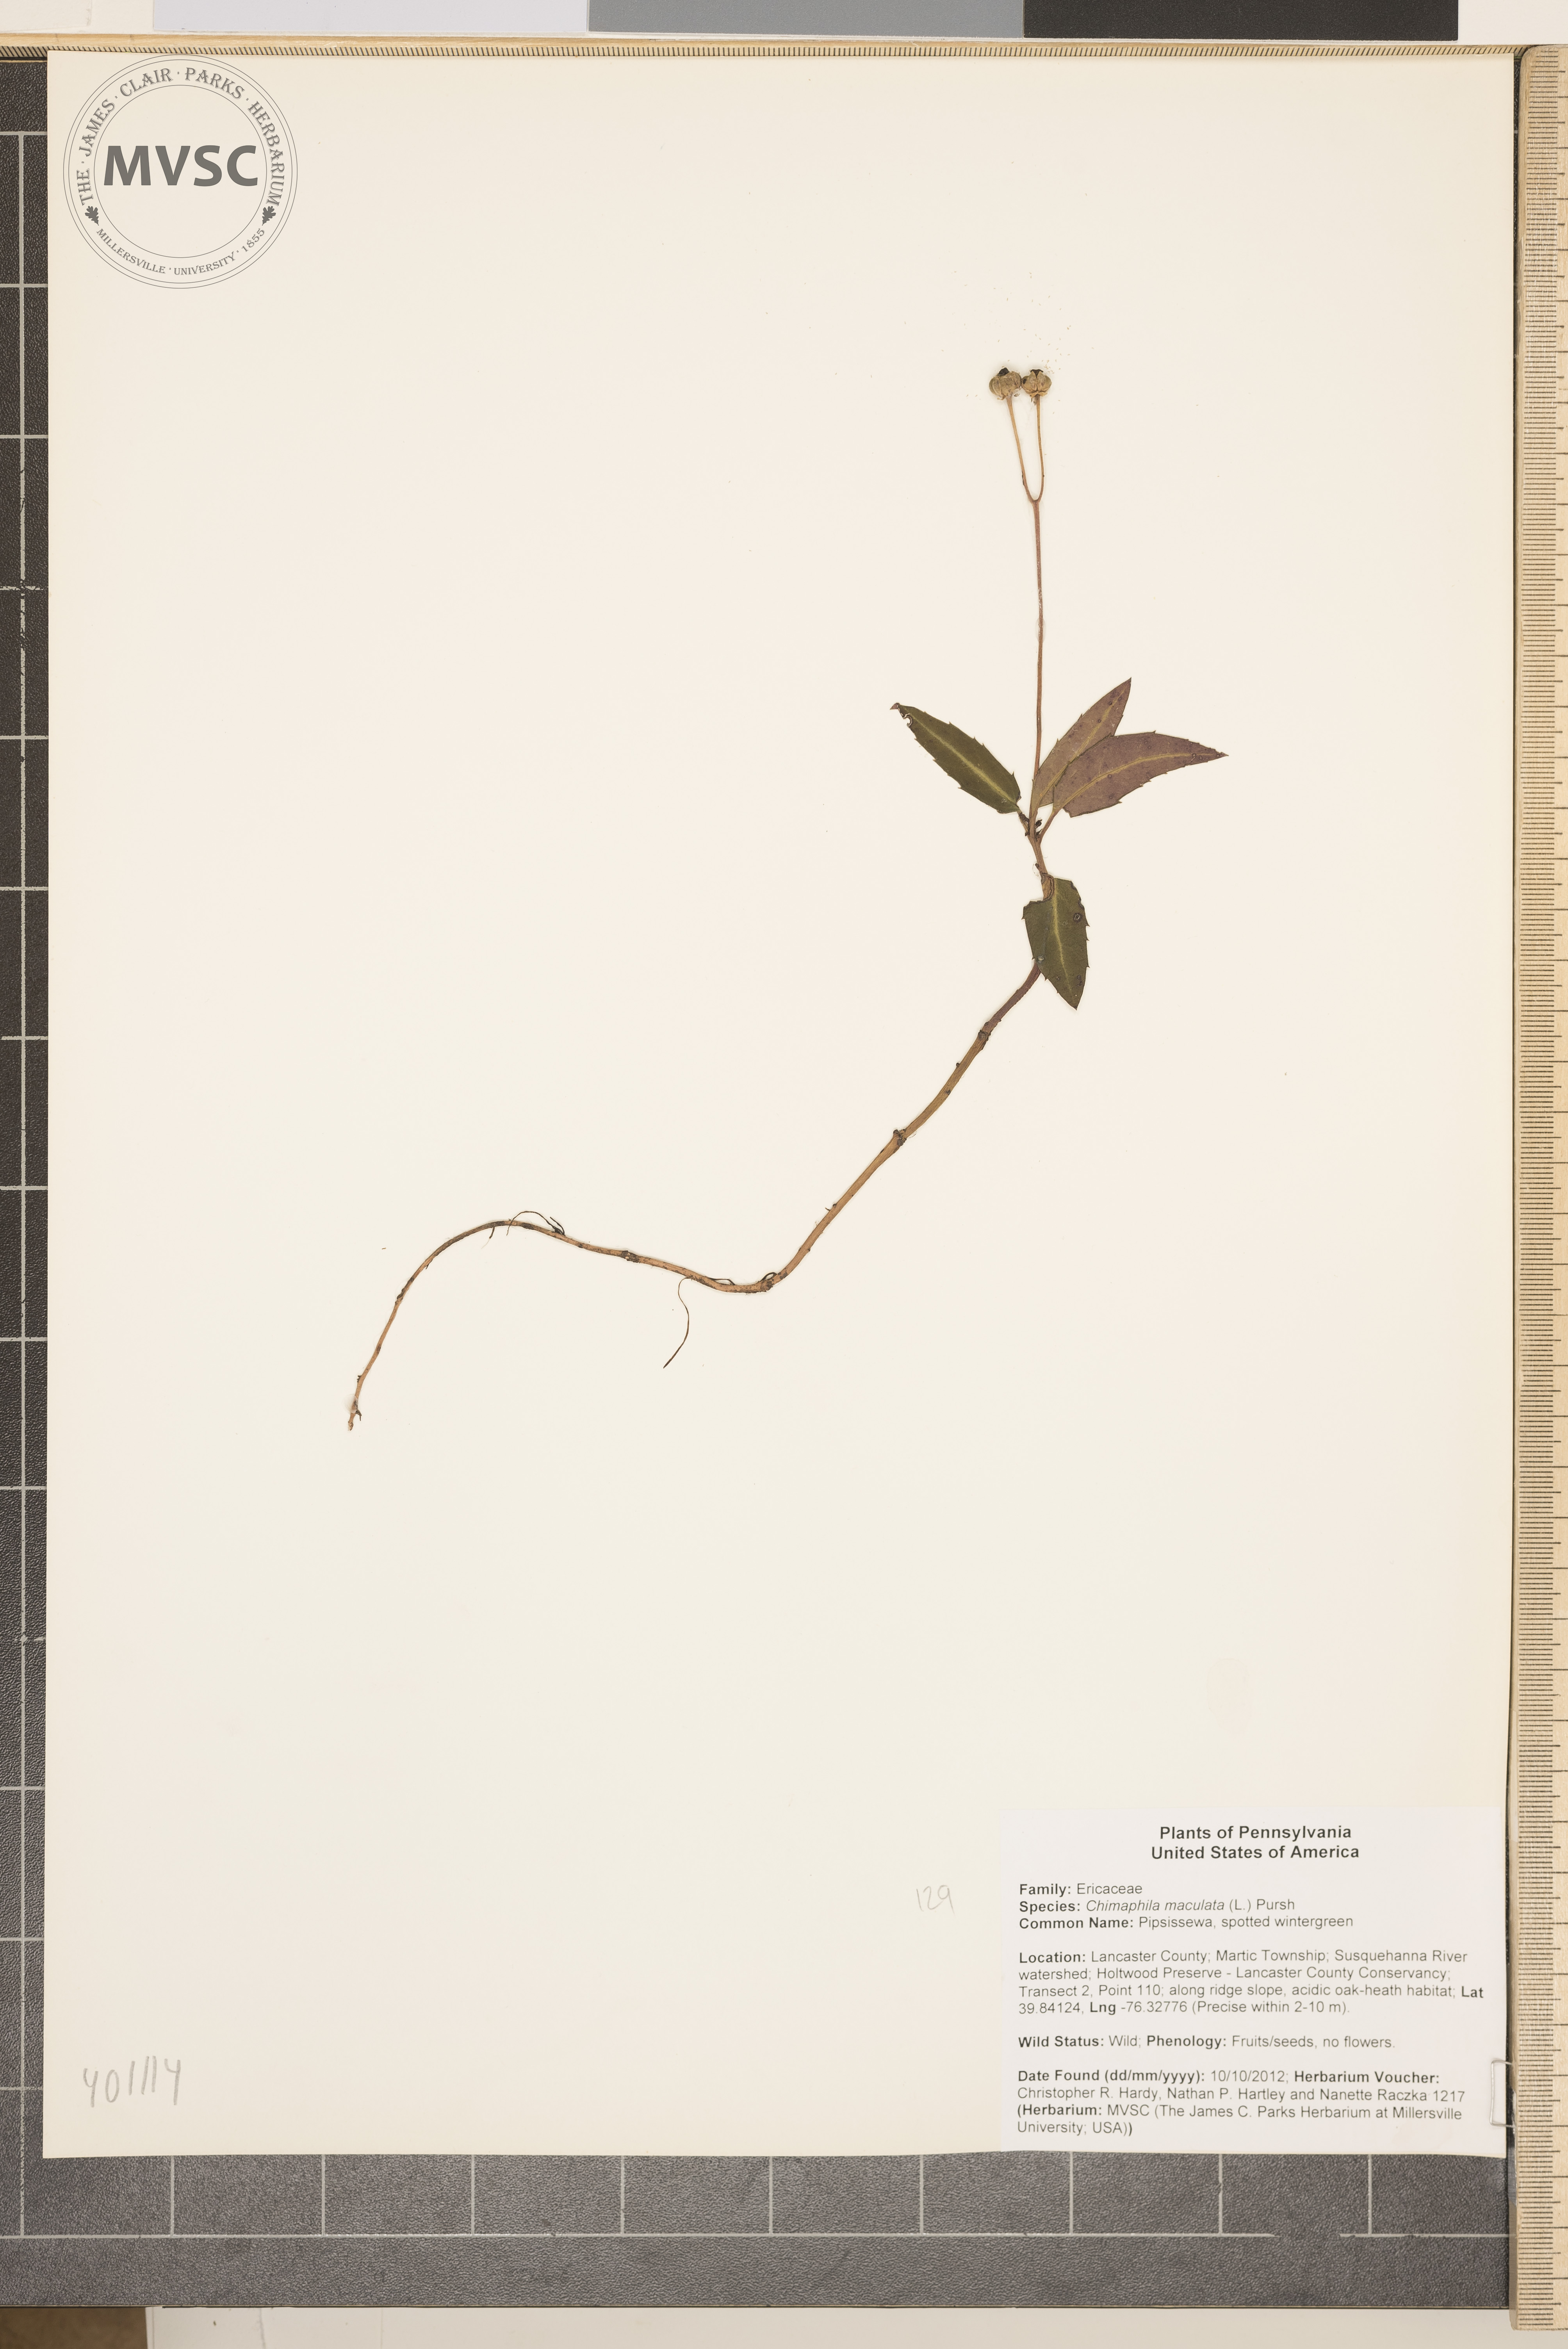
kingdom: Plantae
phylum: Tracheophyta
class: Magnoliopsida
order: Ericales
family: Ericaceae
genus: Chimaphila
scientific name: Chimaphila maculata
